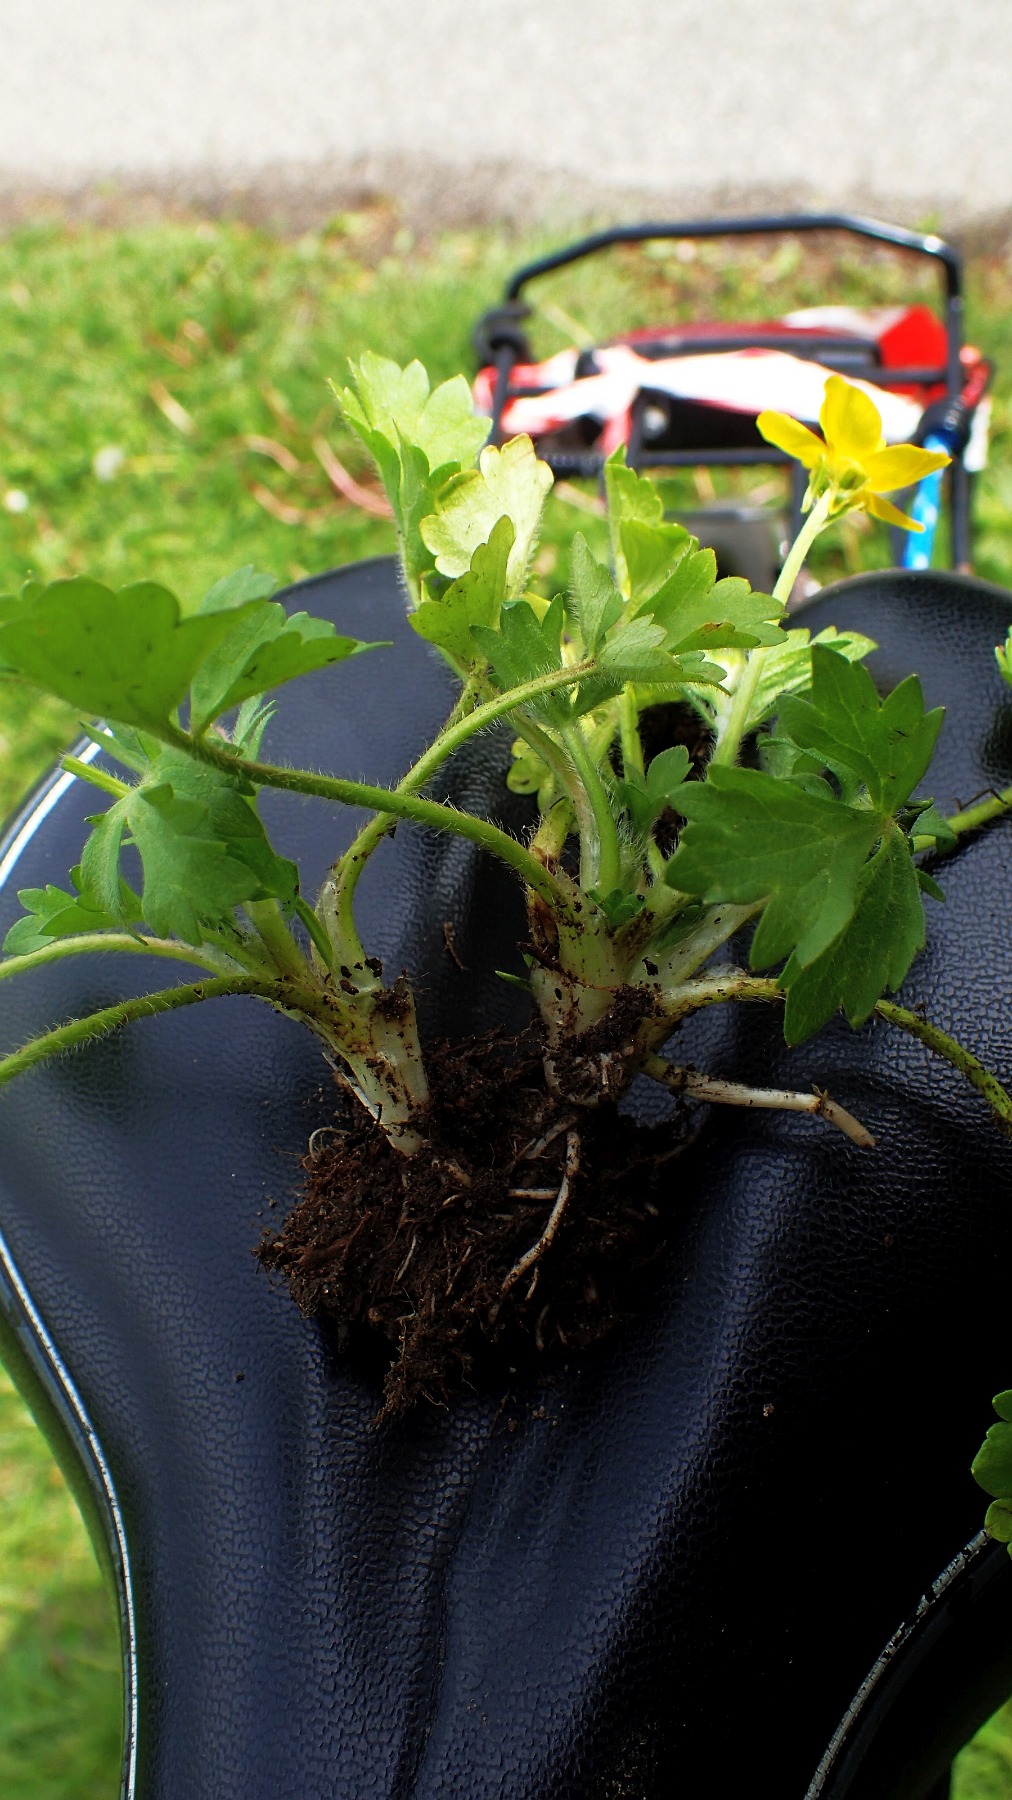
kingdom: Plantae
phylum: Tracheophyta
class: Magnoliopsida
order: Ranunculales
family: Ranunculaceae
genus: Ranunculus
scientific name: Ranunculus sardous
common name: Stivhåret ranunkel
